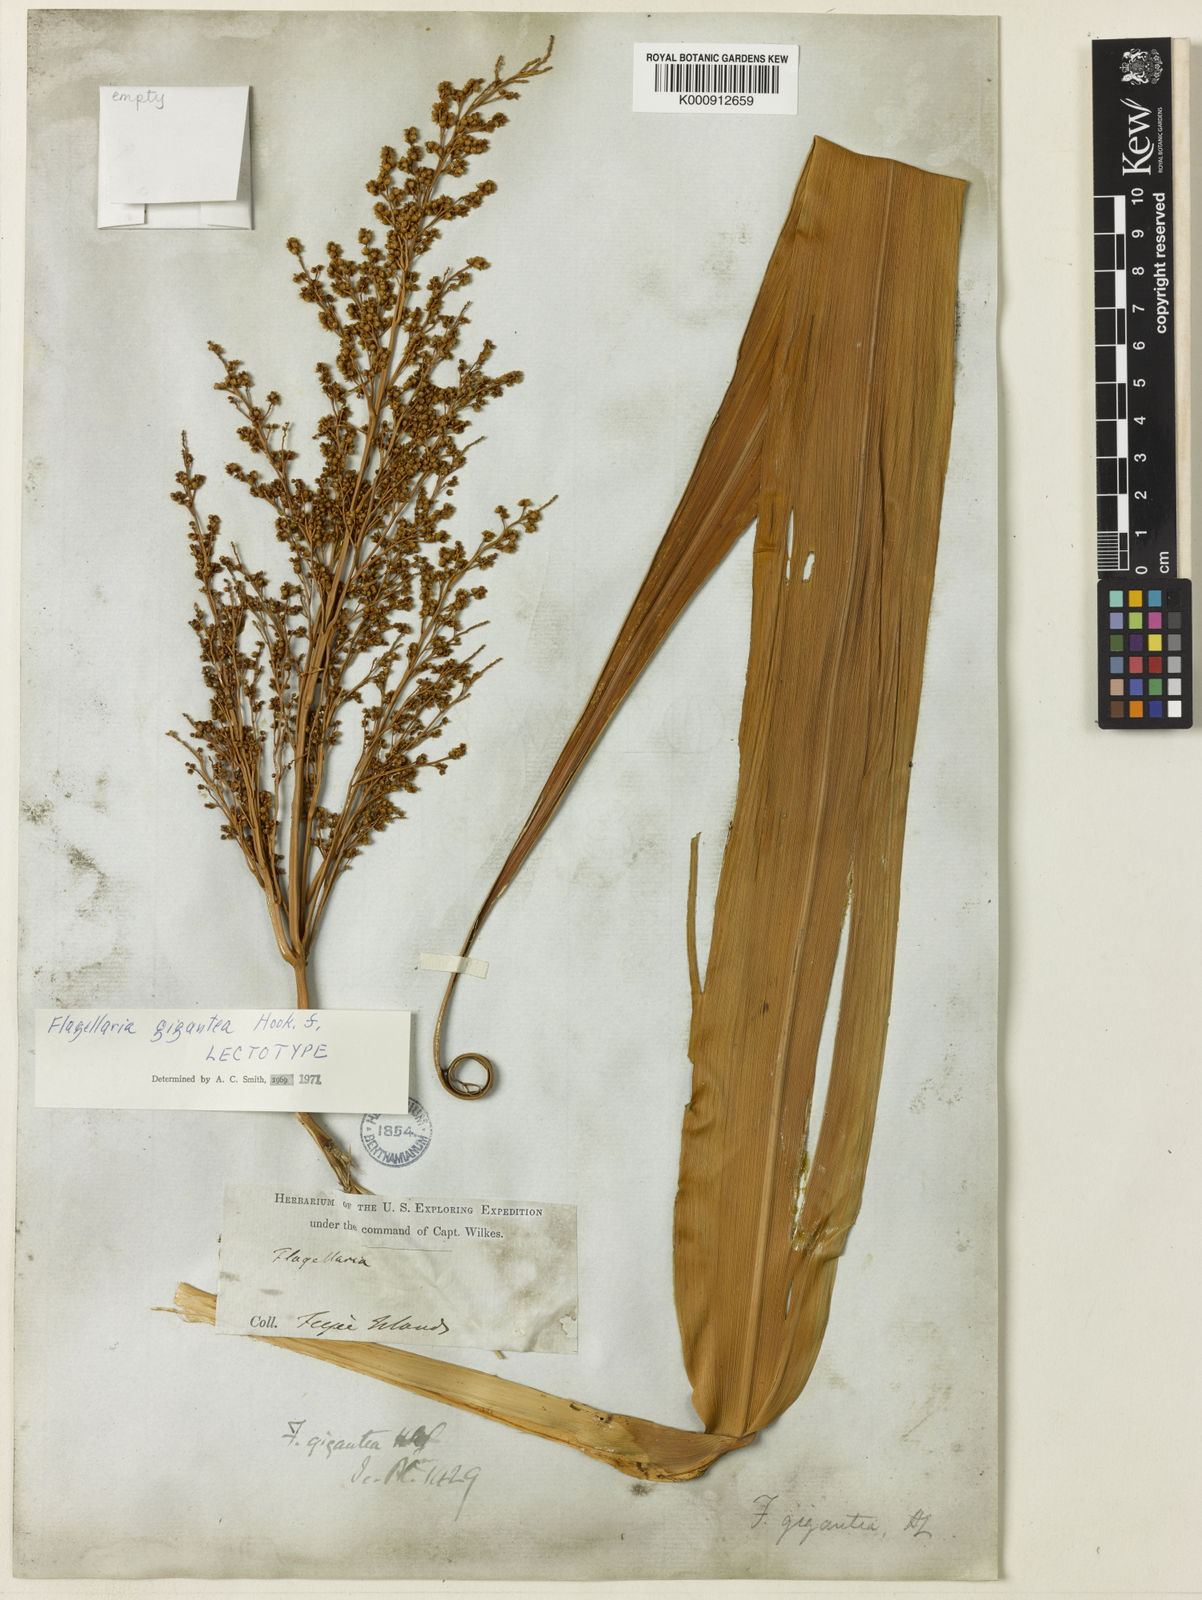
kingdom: Plantae
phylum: Tracheophyta
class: Liliopsida
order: Poales
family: Flagellariaceae
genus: Flagellaria
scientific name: Flagellaria gigantea
